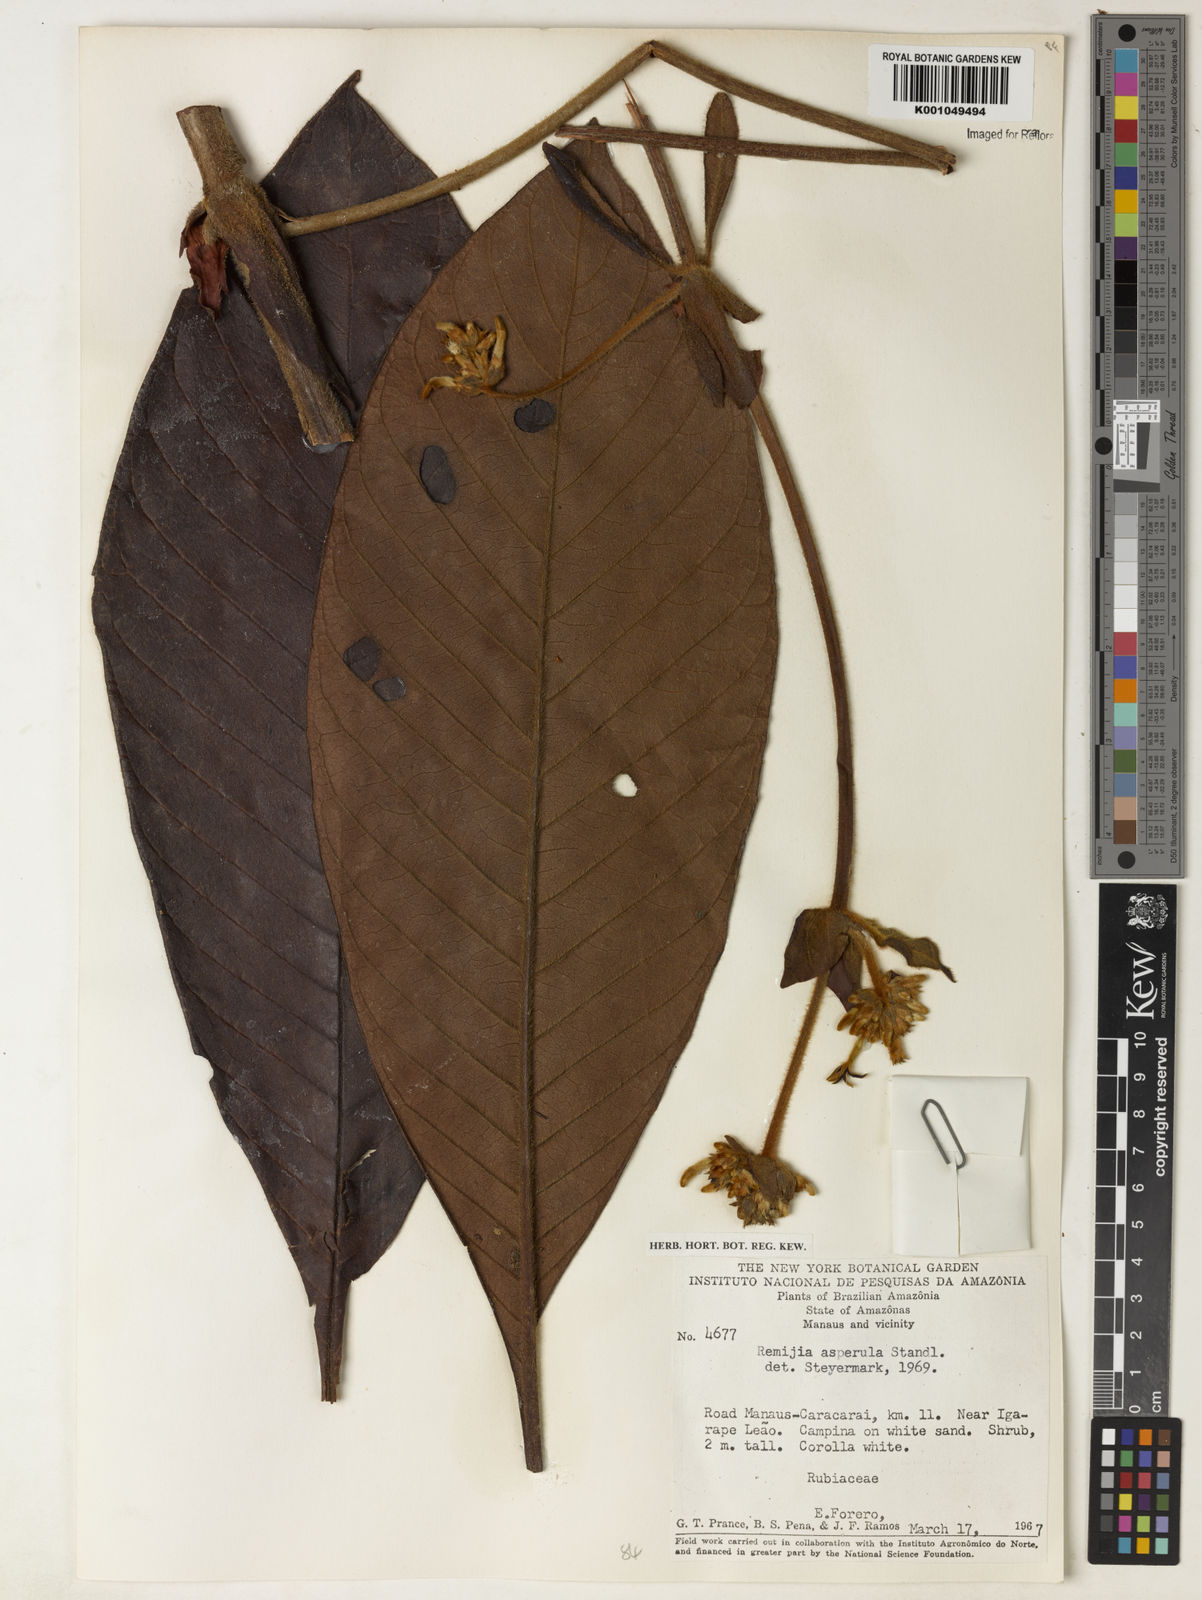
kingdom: Plantae
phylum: Tracheophyta
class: Magnoliopsida
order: Gentianales
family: Rubiaceae
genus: Remijia
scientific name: Remijia asperula
